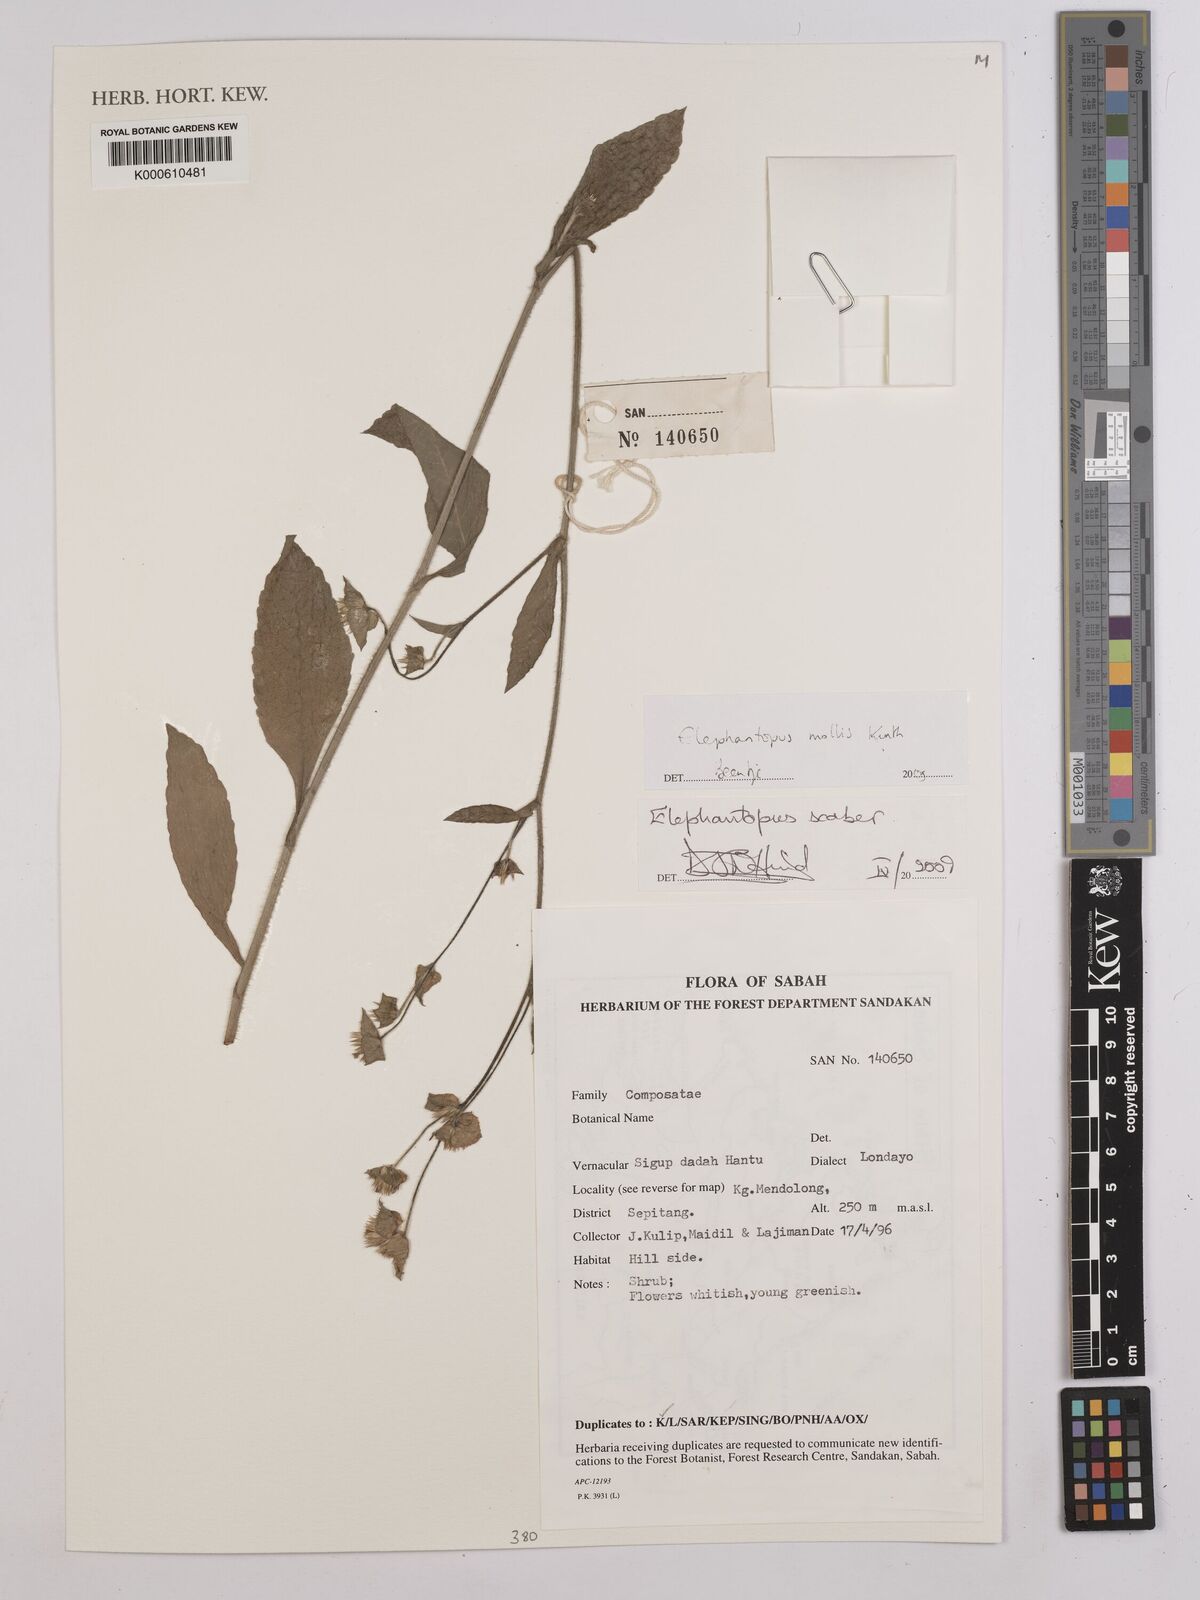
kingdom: Plantae
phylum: Tracheophyta
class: Magnoliopsida
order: Asterales
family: Asteraceae
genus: Elephantopus
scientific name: Elephantopus mollis
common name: Soft elephantsfoot
